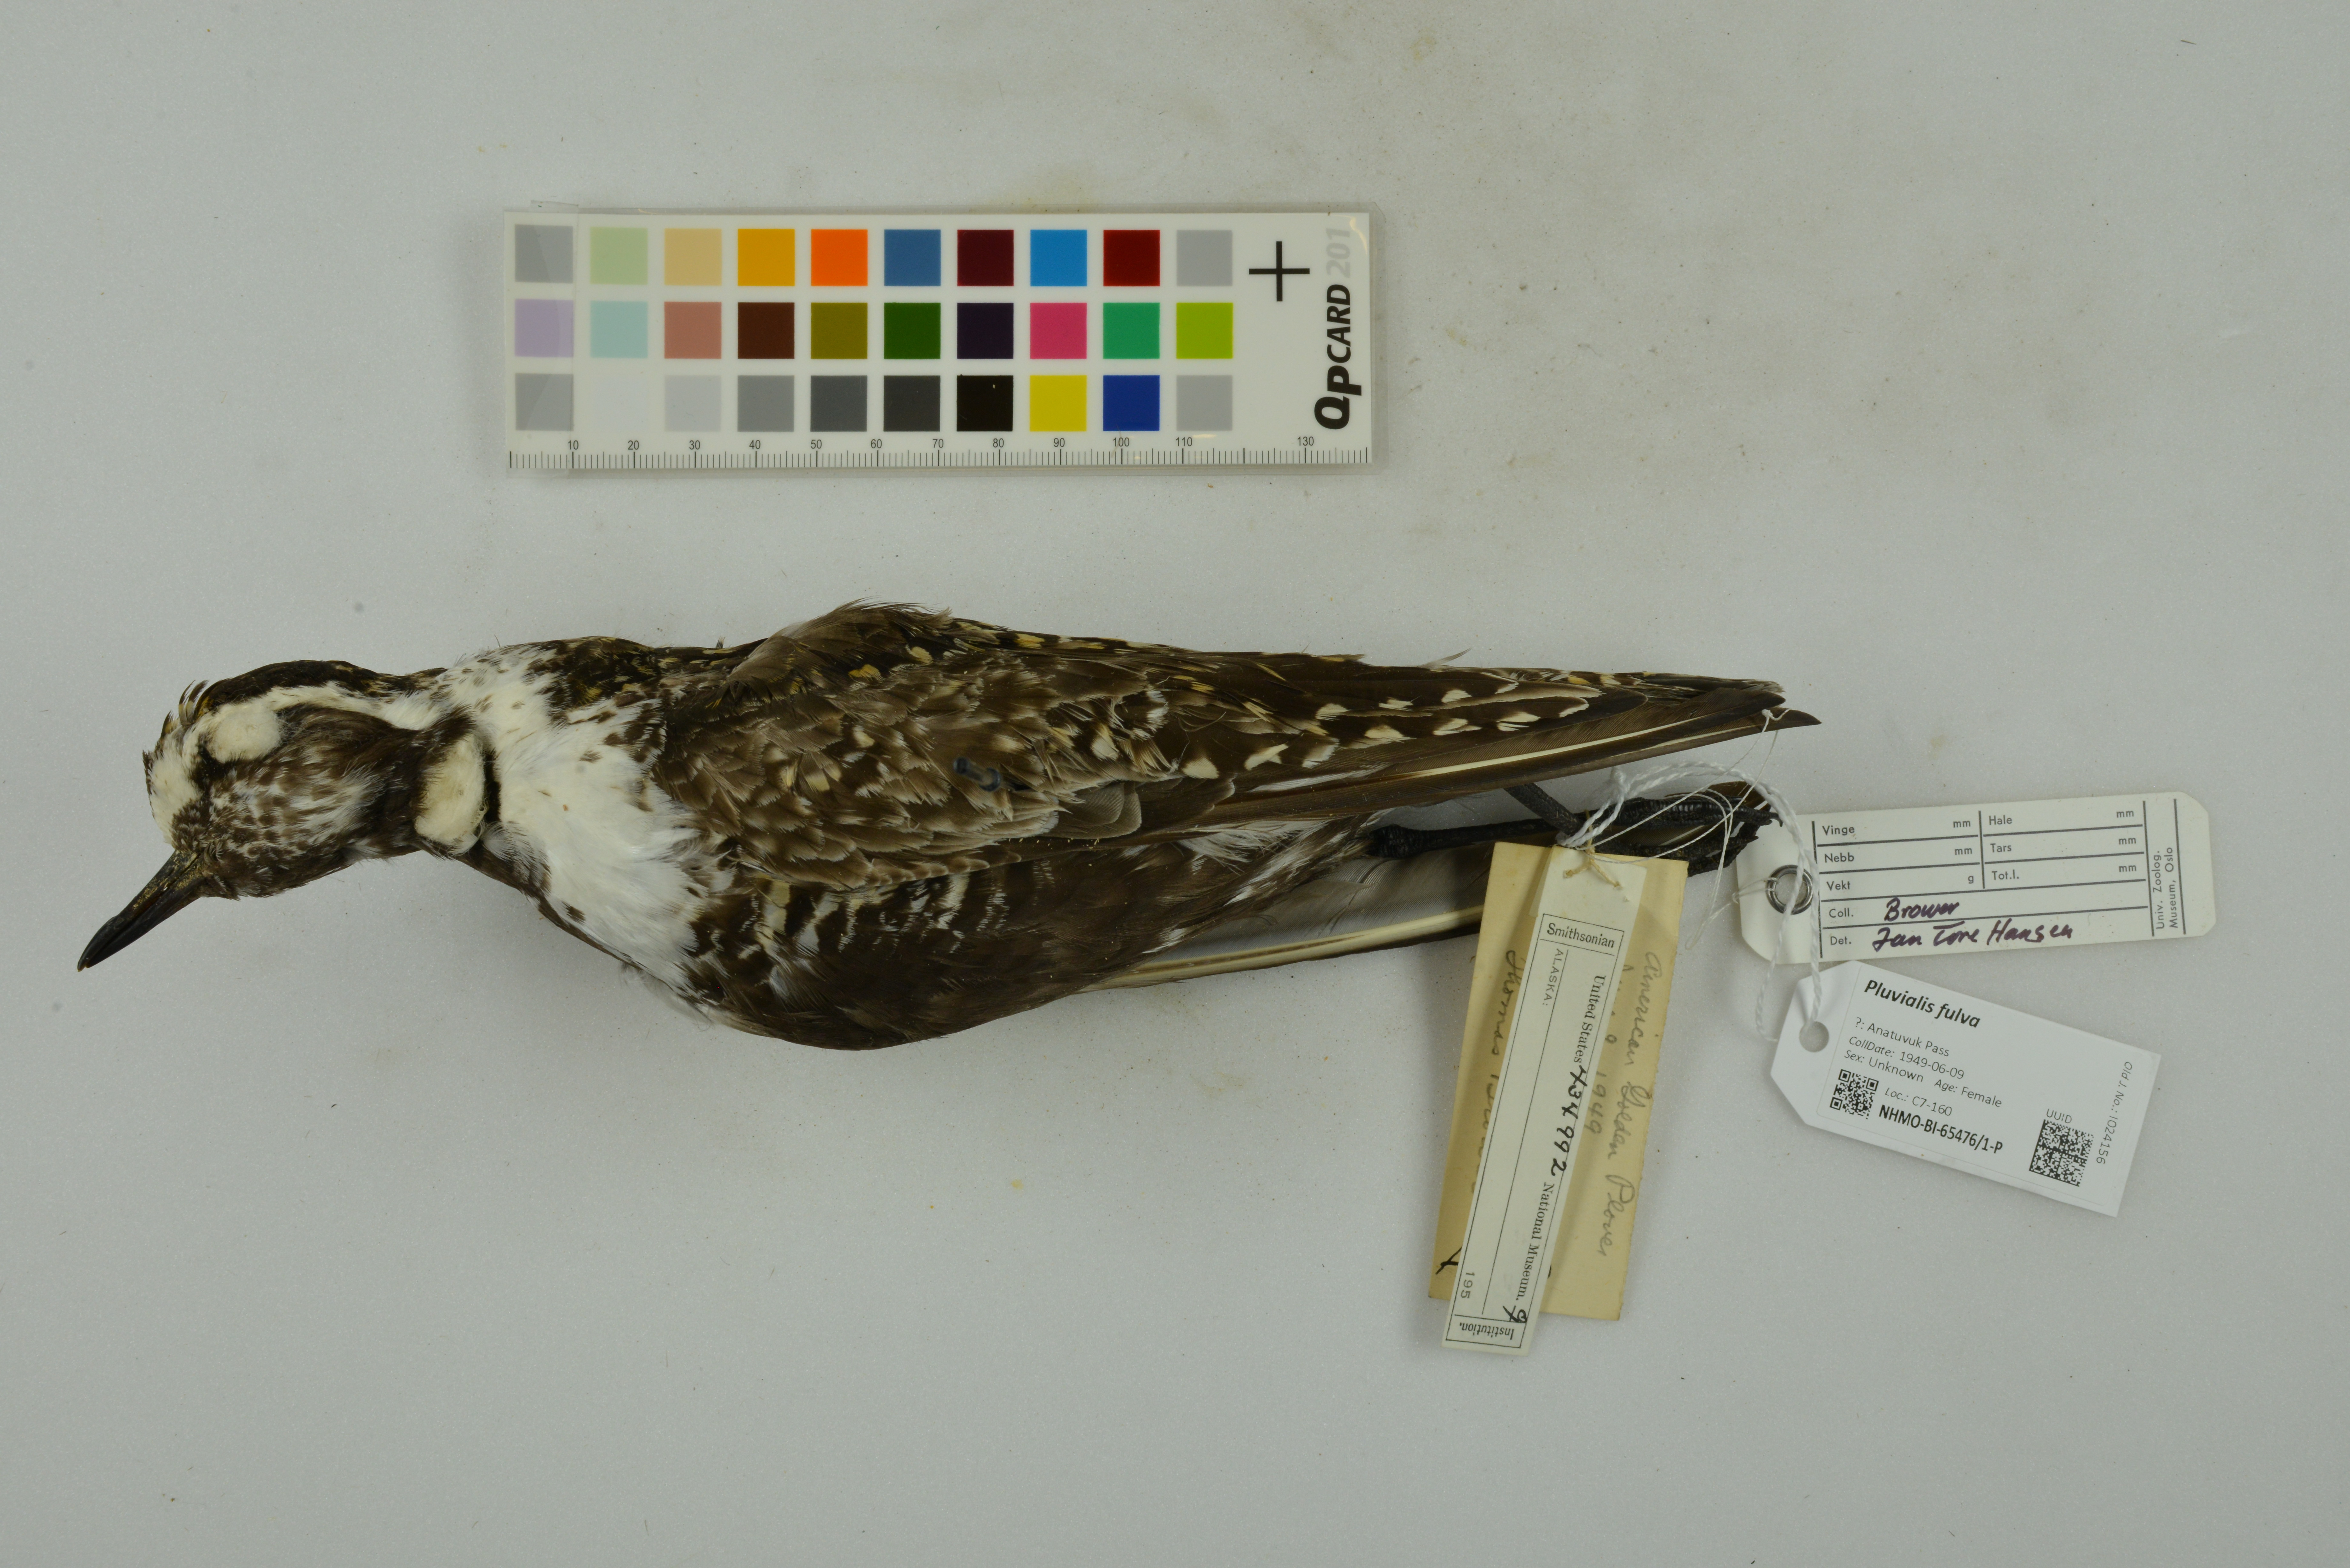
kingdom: Animalia
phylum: Chordata
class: Aves
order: Charadriiformes
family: Charadriidae
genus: Pluvialis
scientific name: Pluvialis fulva
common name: Pacific golden plover
